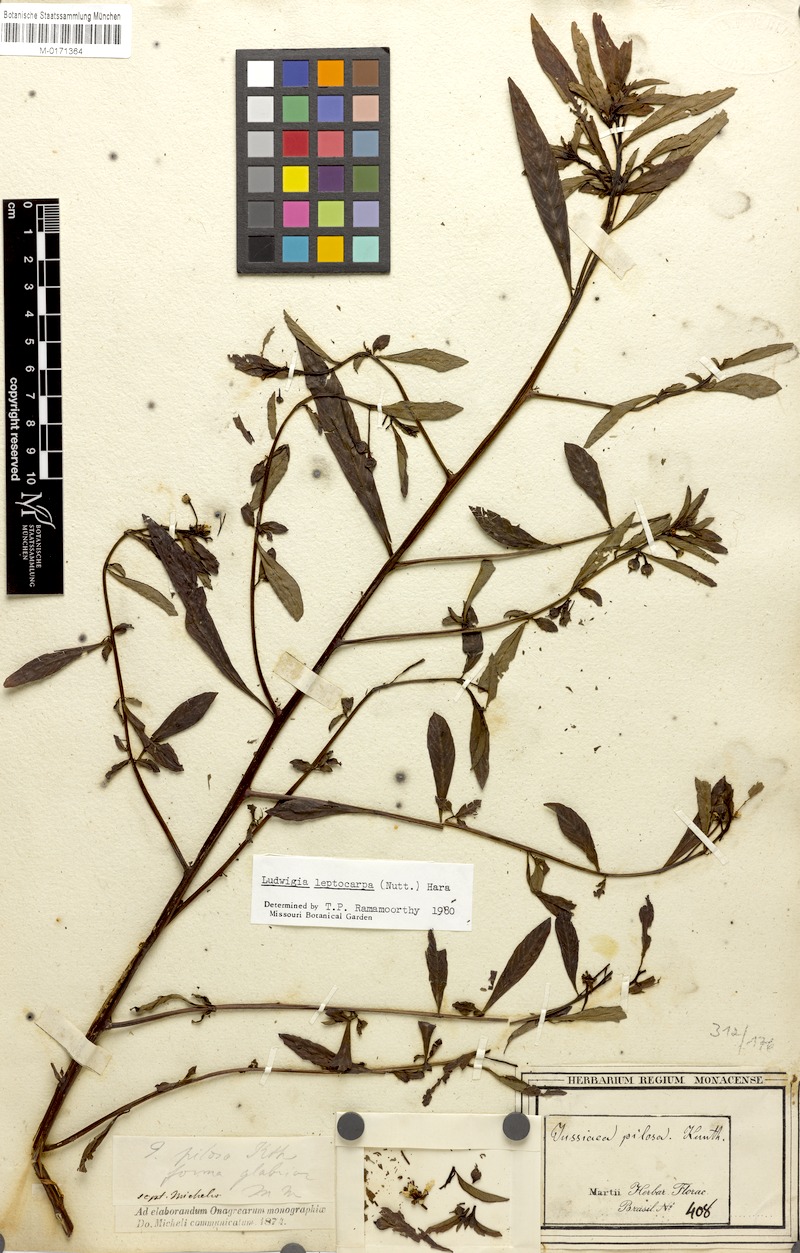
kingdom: Plantae
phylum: Tracheophyta
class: Magnoliopsida
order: Myrtales
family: Onagraceae
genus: Ludwigia
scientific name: Ludwigia leptocarpa
